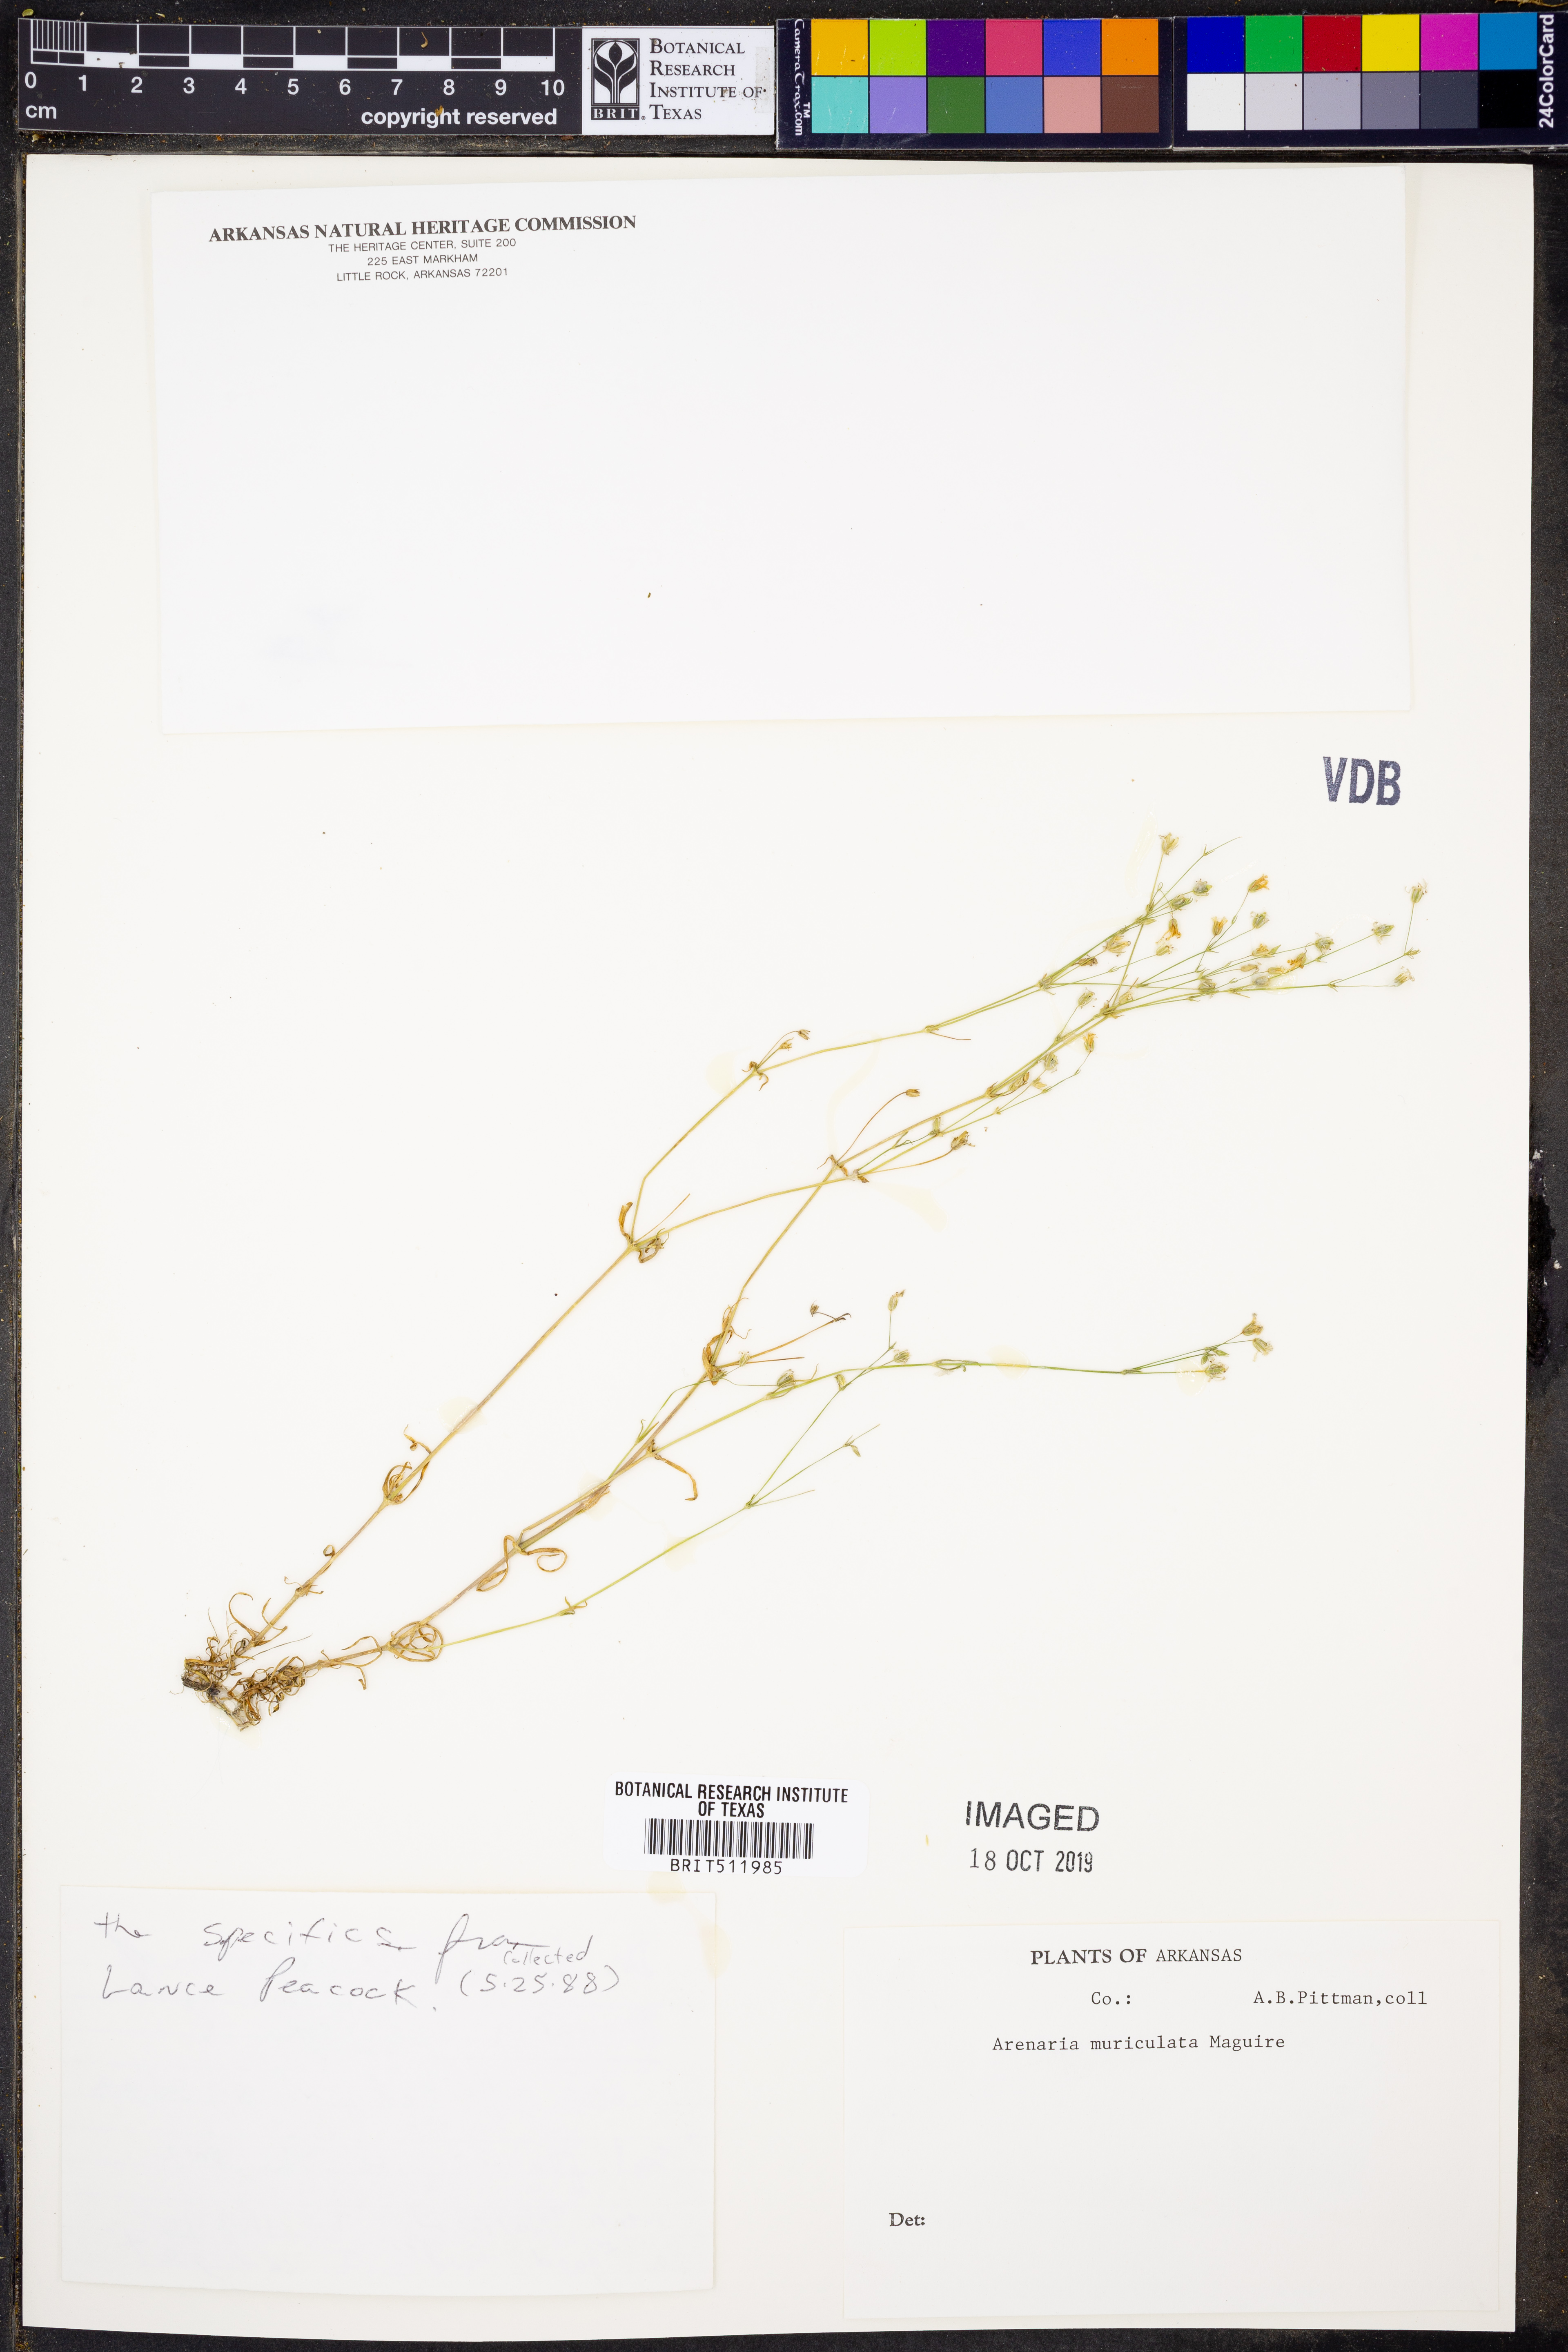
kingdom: Plantae
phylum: Tracheophyta
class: Magnoliopsida
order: Caryophyllales
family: Caryophyllaceae
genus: Mononeuria
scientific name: Mononeuria muscorum
